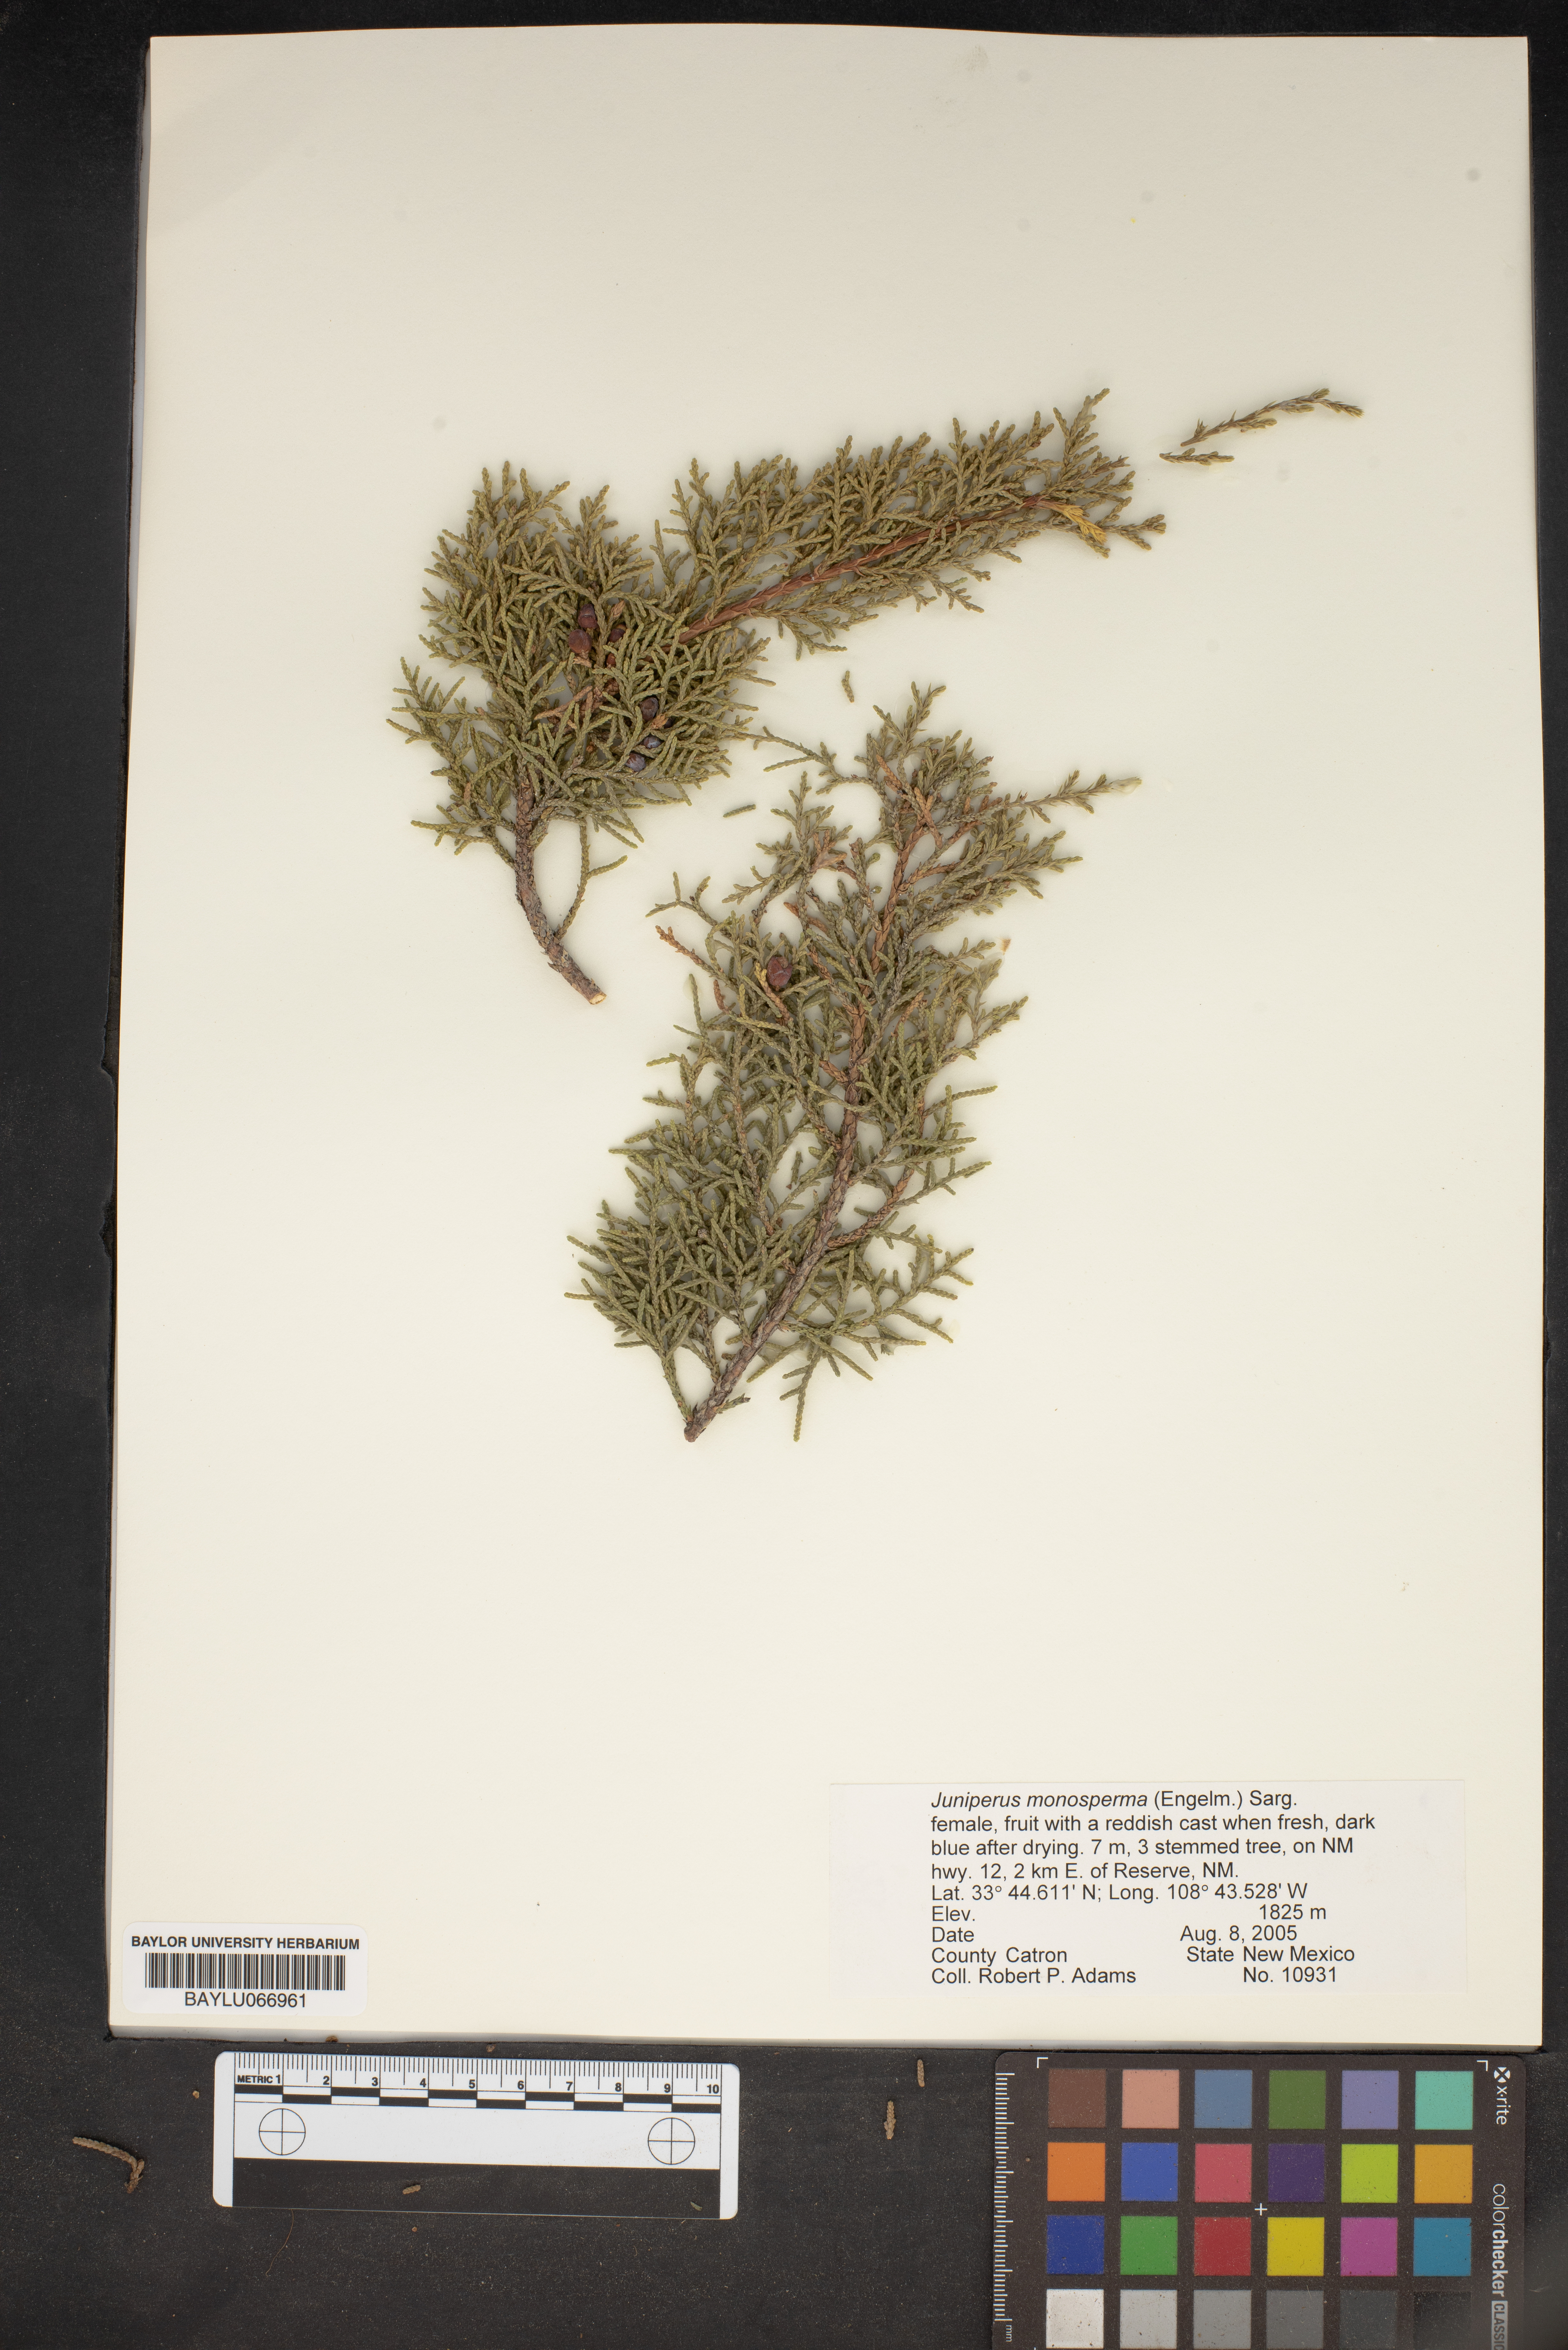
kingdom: Plantae
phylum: Tracheophyta
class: Pinopsida
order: Pinales
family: Cupressaceae
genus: Juniperus
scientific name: Juniperus monosperma
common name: One-seed juniper
